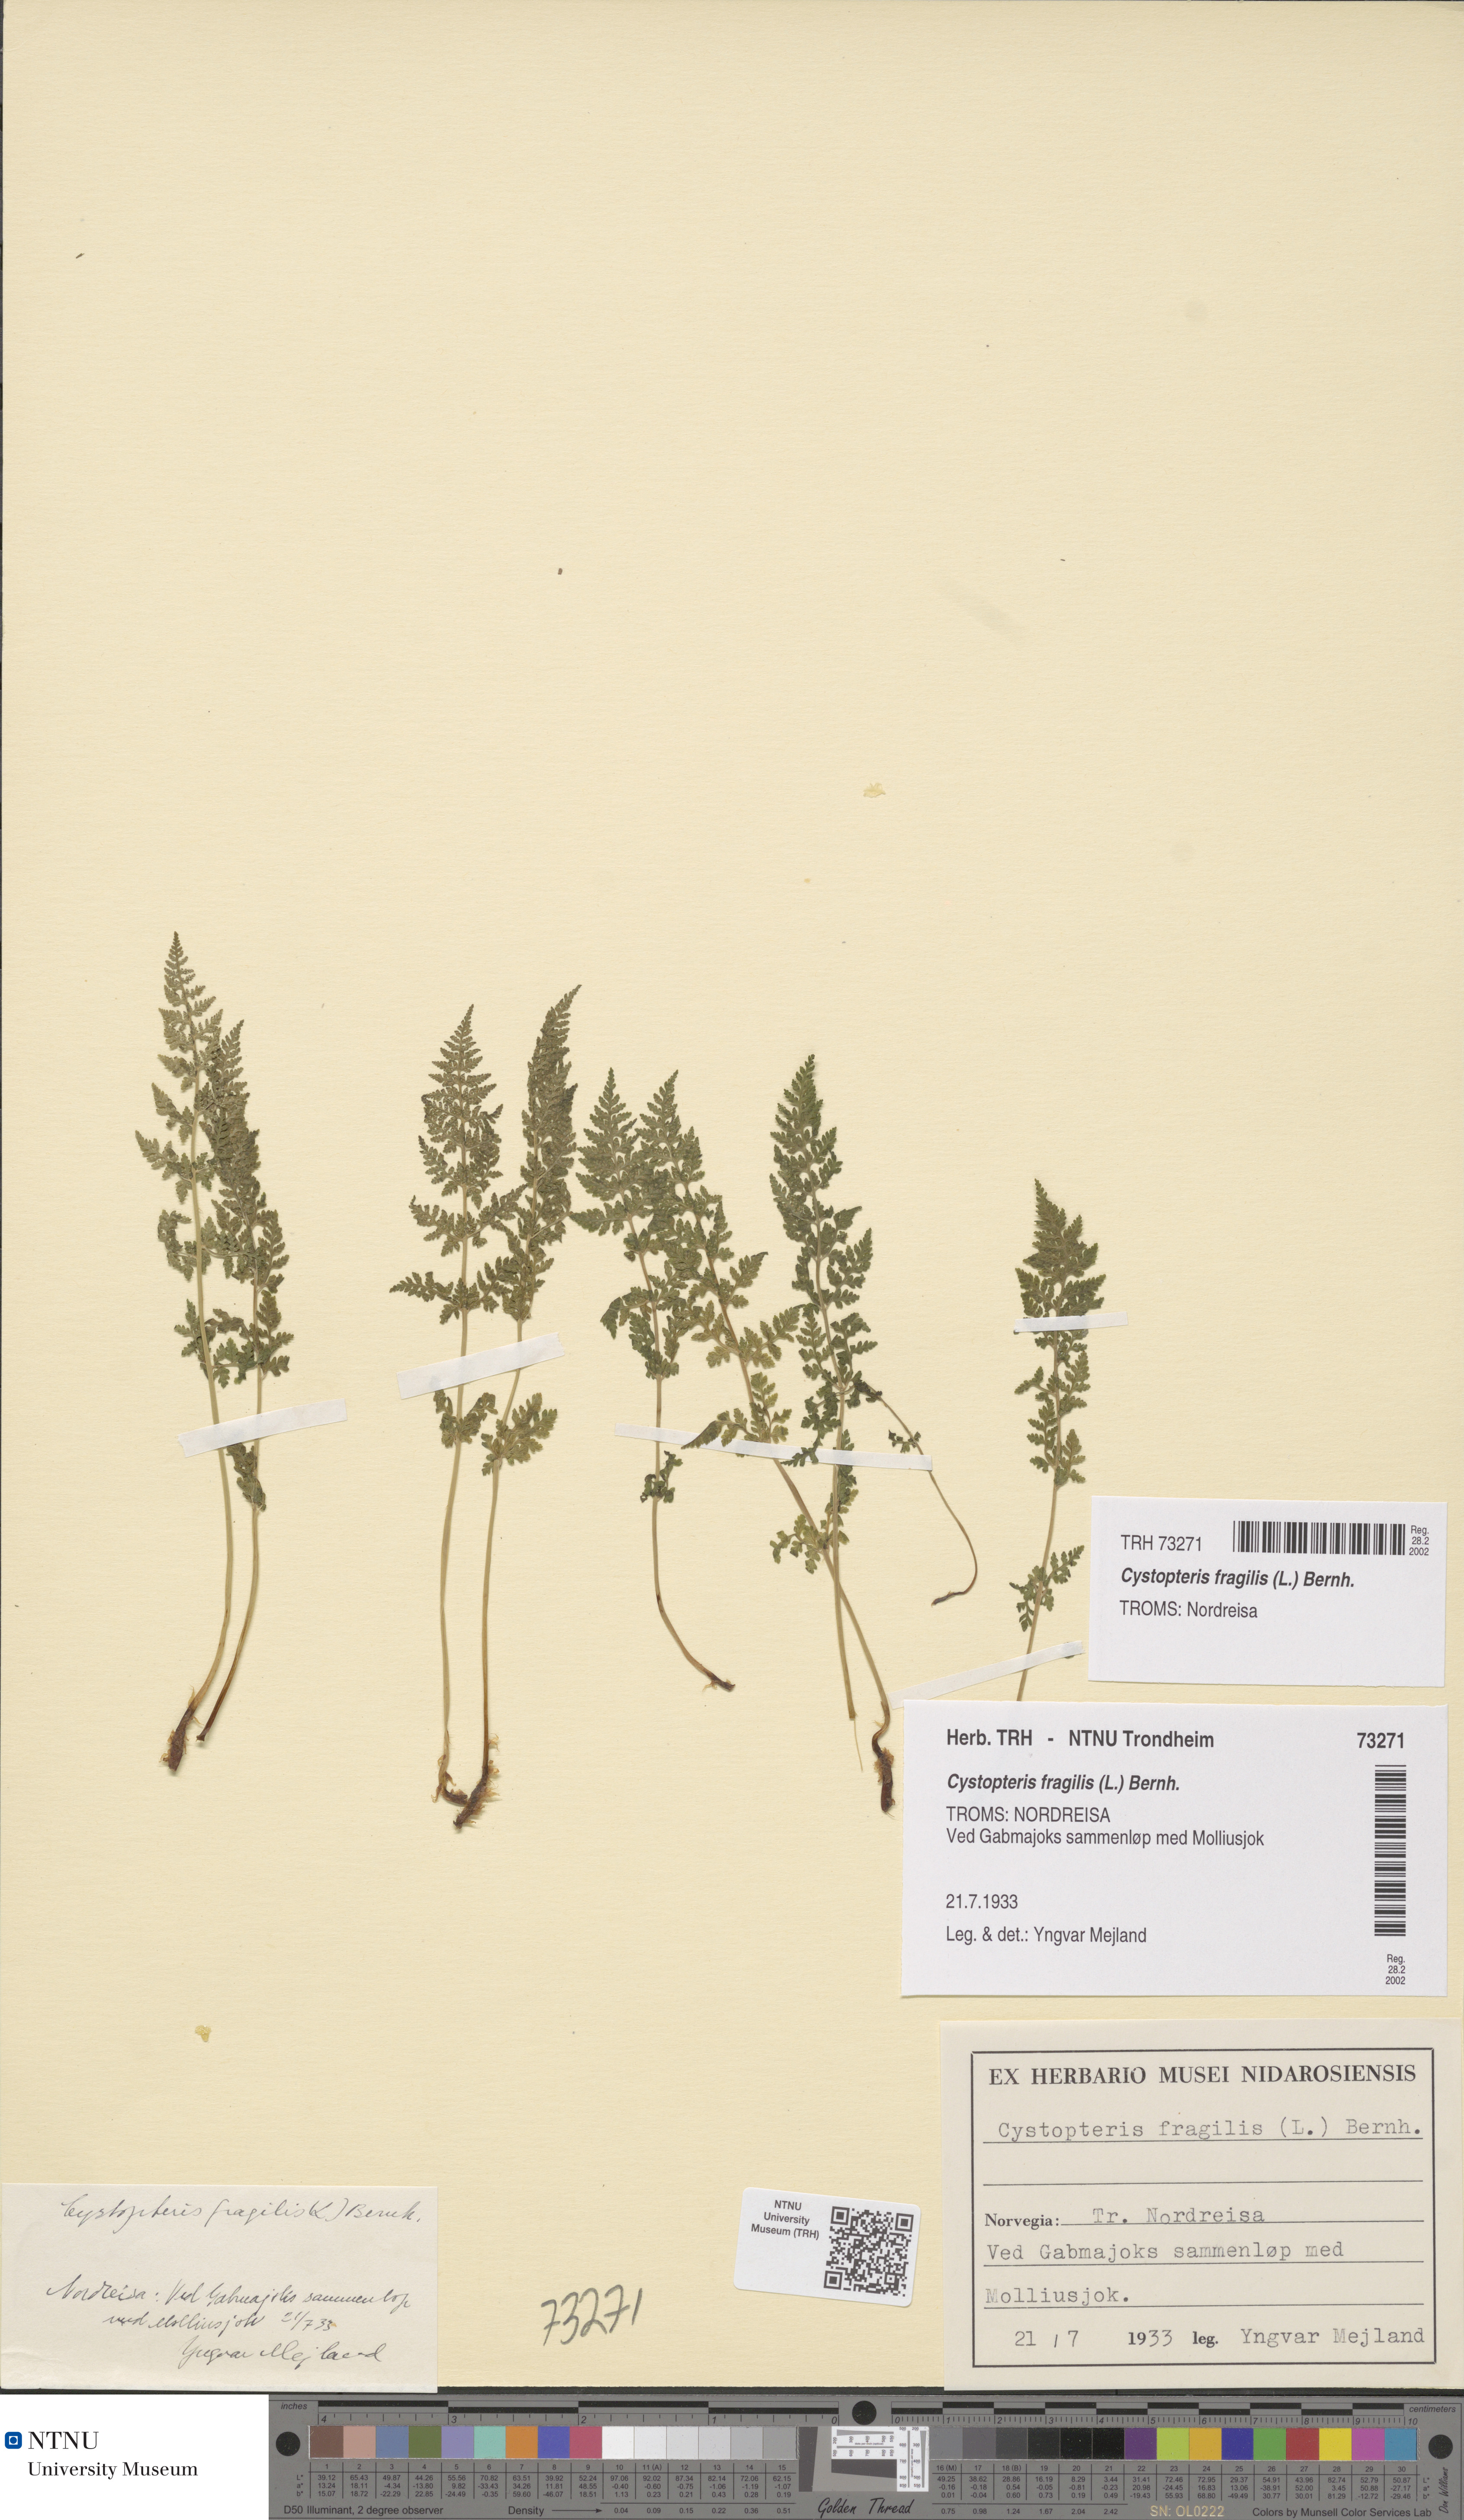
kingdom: Plantae
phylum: Tracheophyta
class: Polypodiopsida
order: Polypodiales
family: Cystopteridaceae
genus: Cystopteris
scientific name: Cystopteris fragilis
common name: Brittle bladder fern
